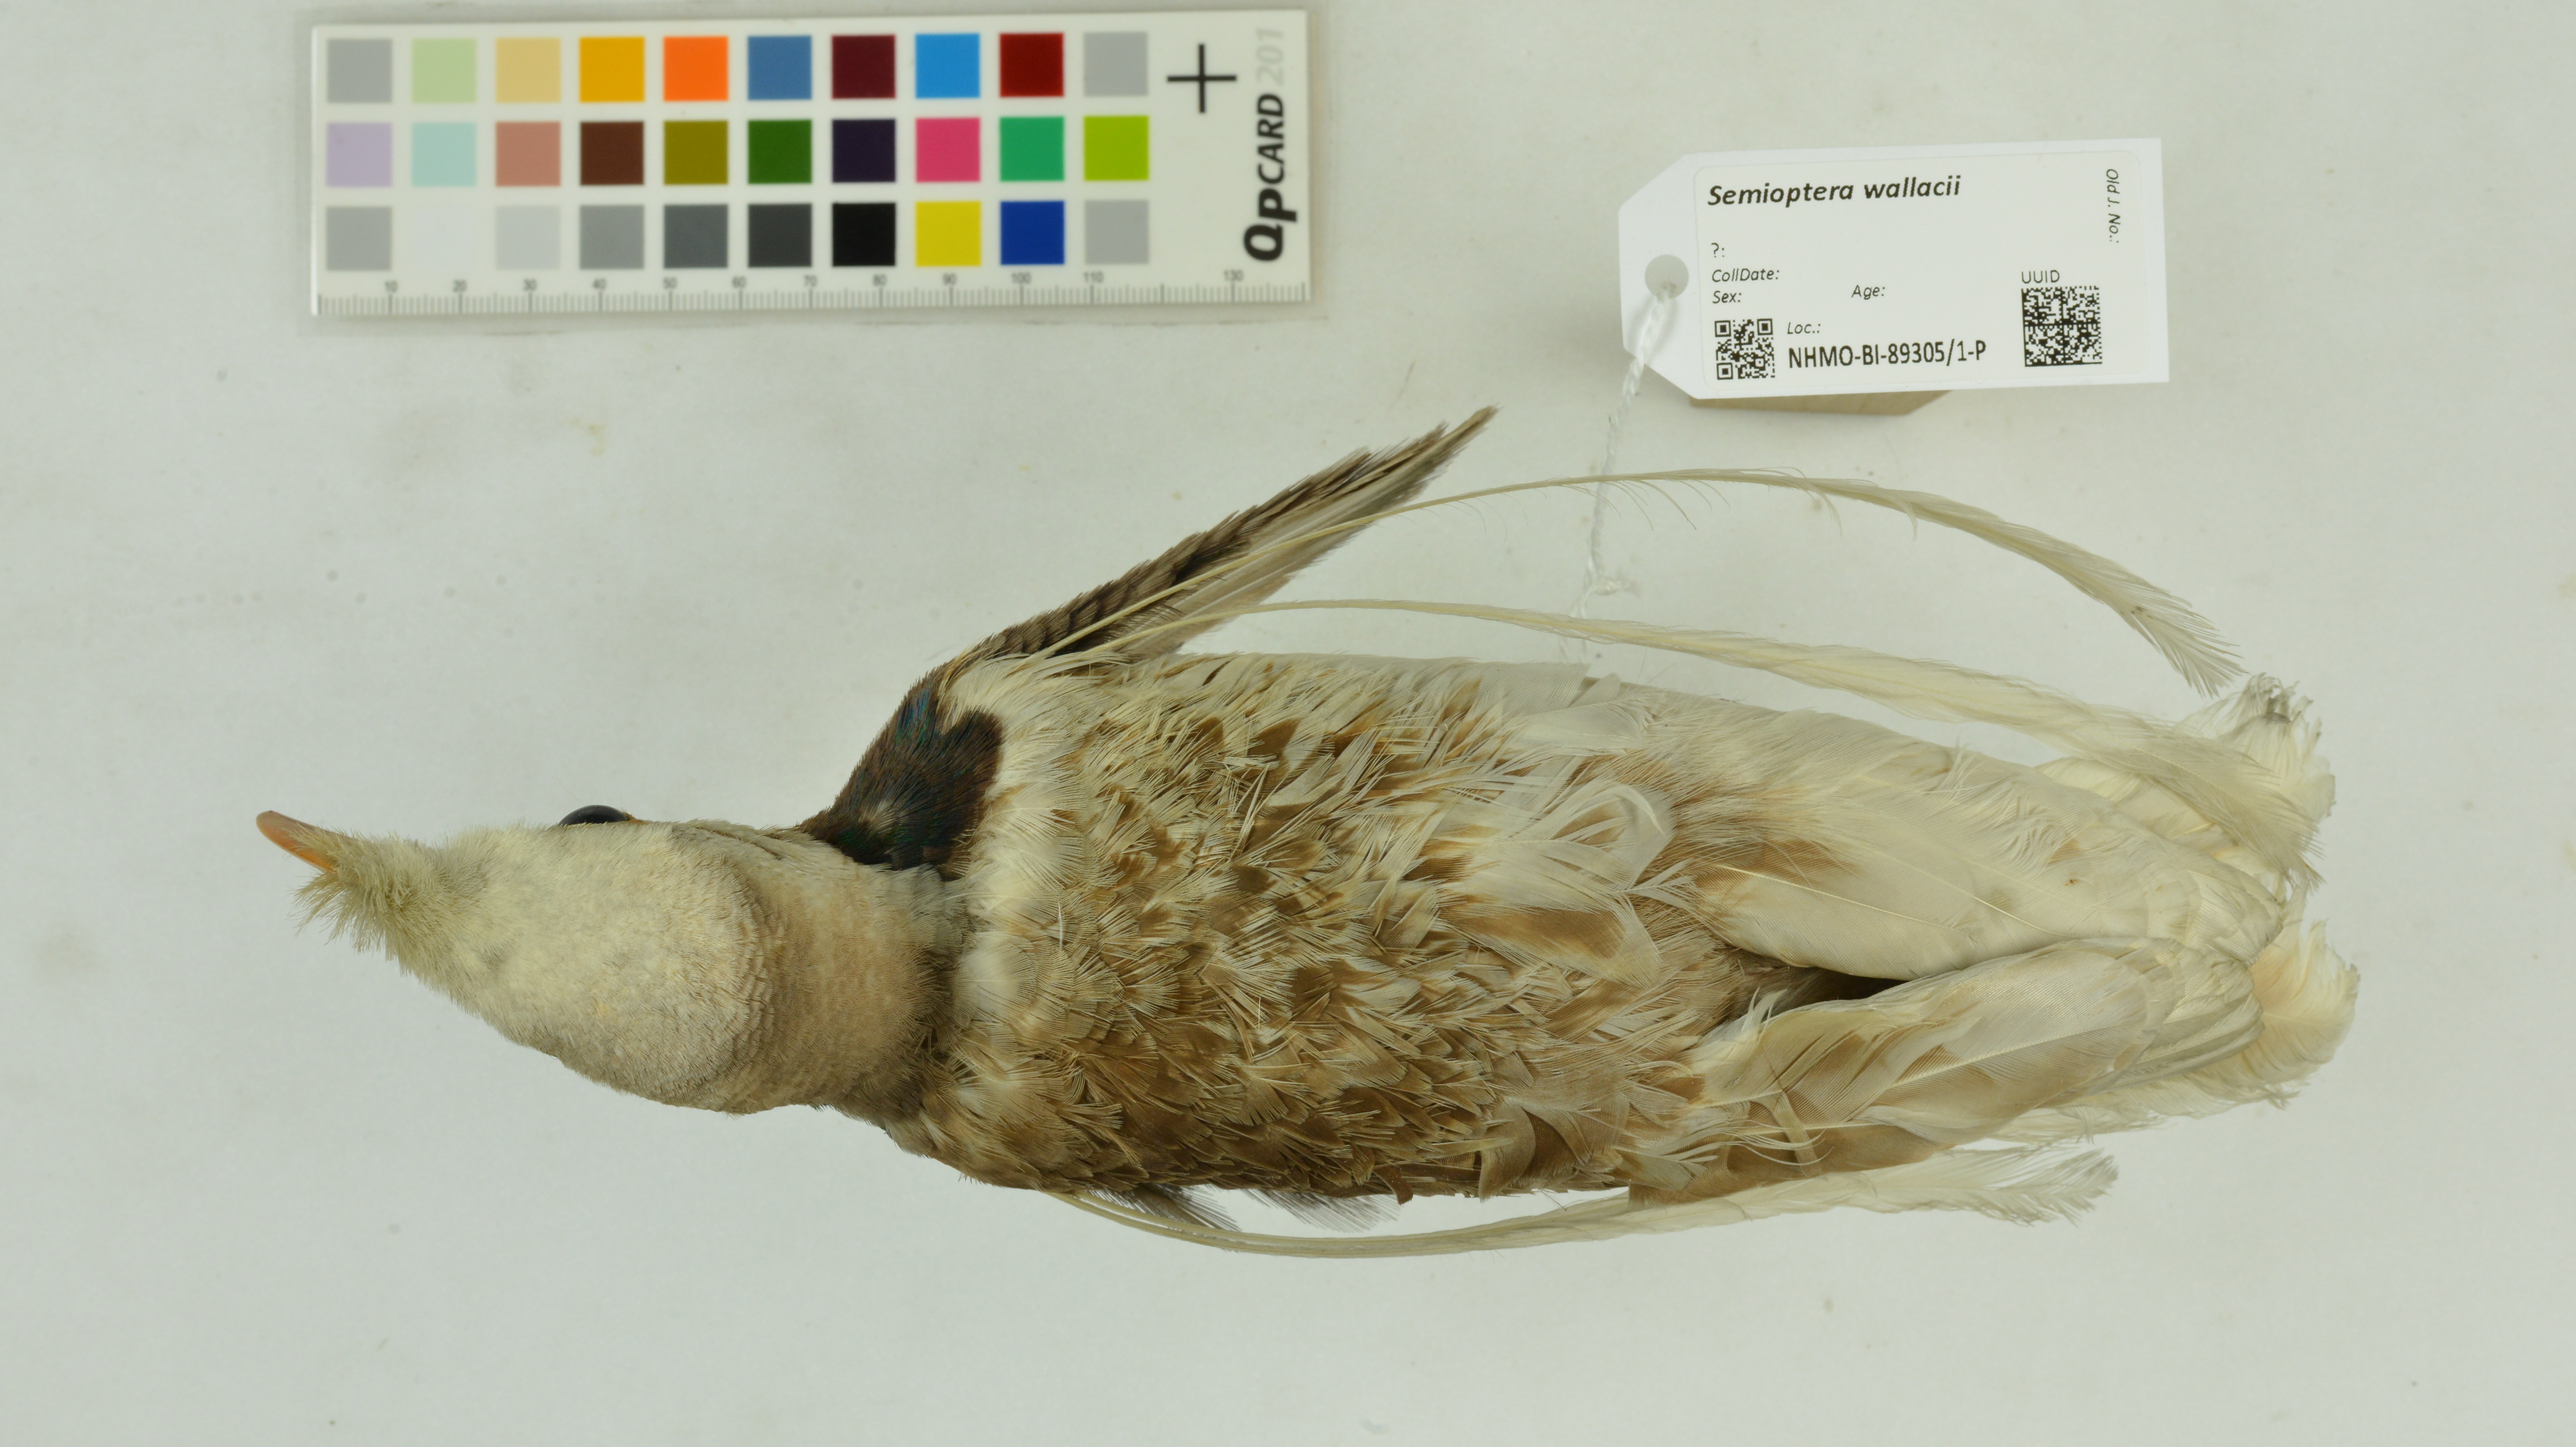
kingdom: Animalia
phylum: Chordata
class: Aves
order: Passeriformes
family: Paradisaeidae
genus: Semioptera
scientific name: Semioptera wallacii
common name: Standardwing
